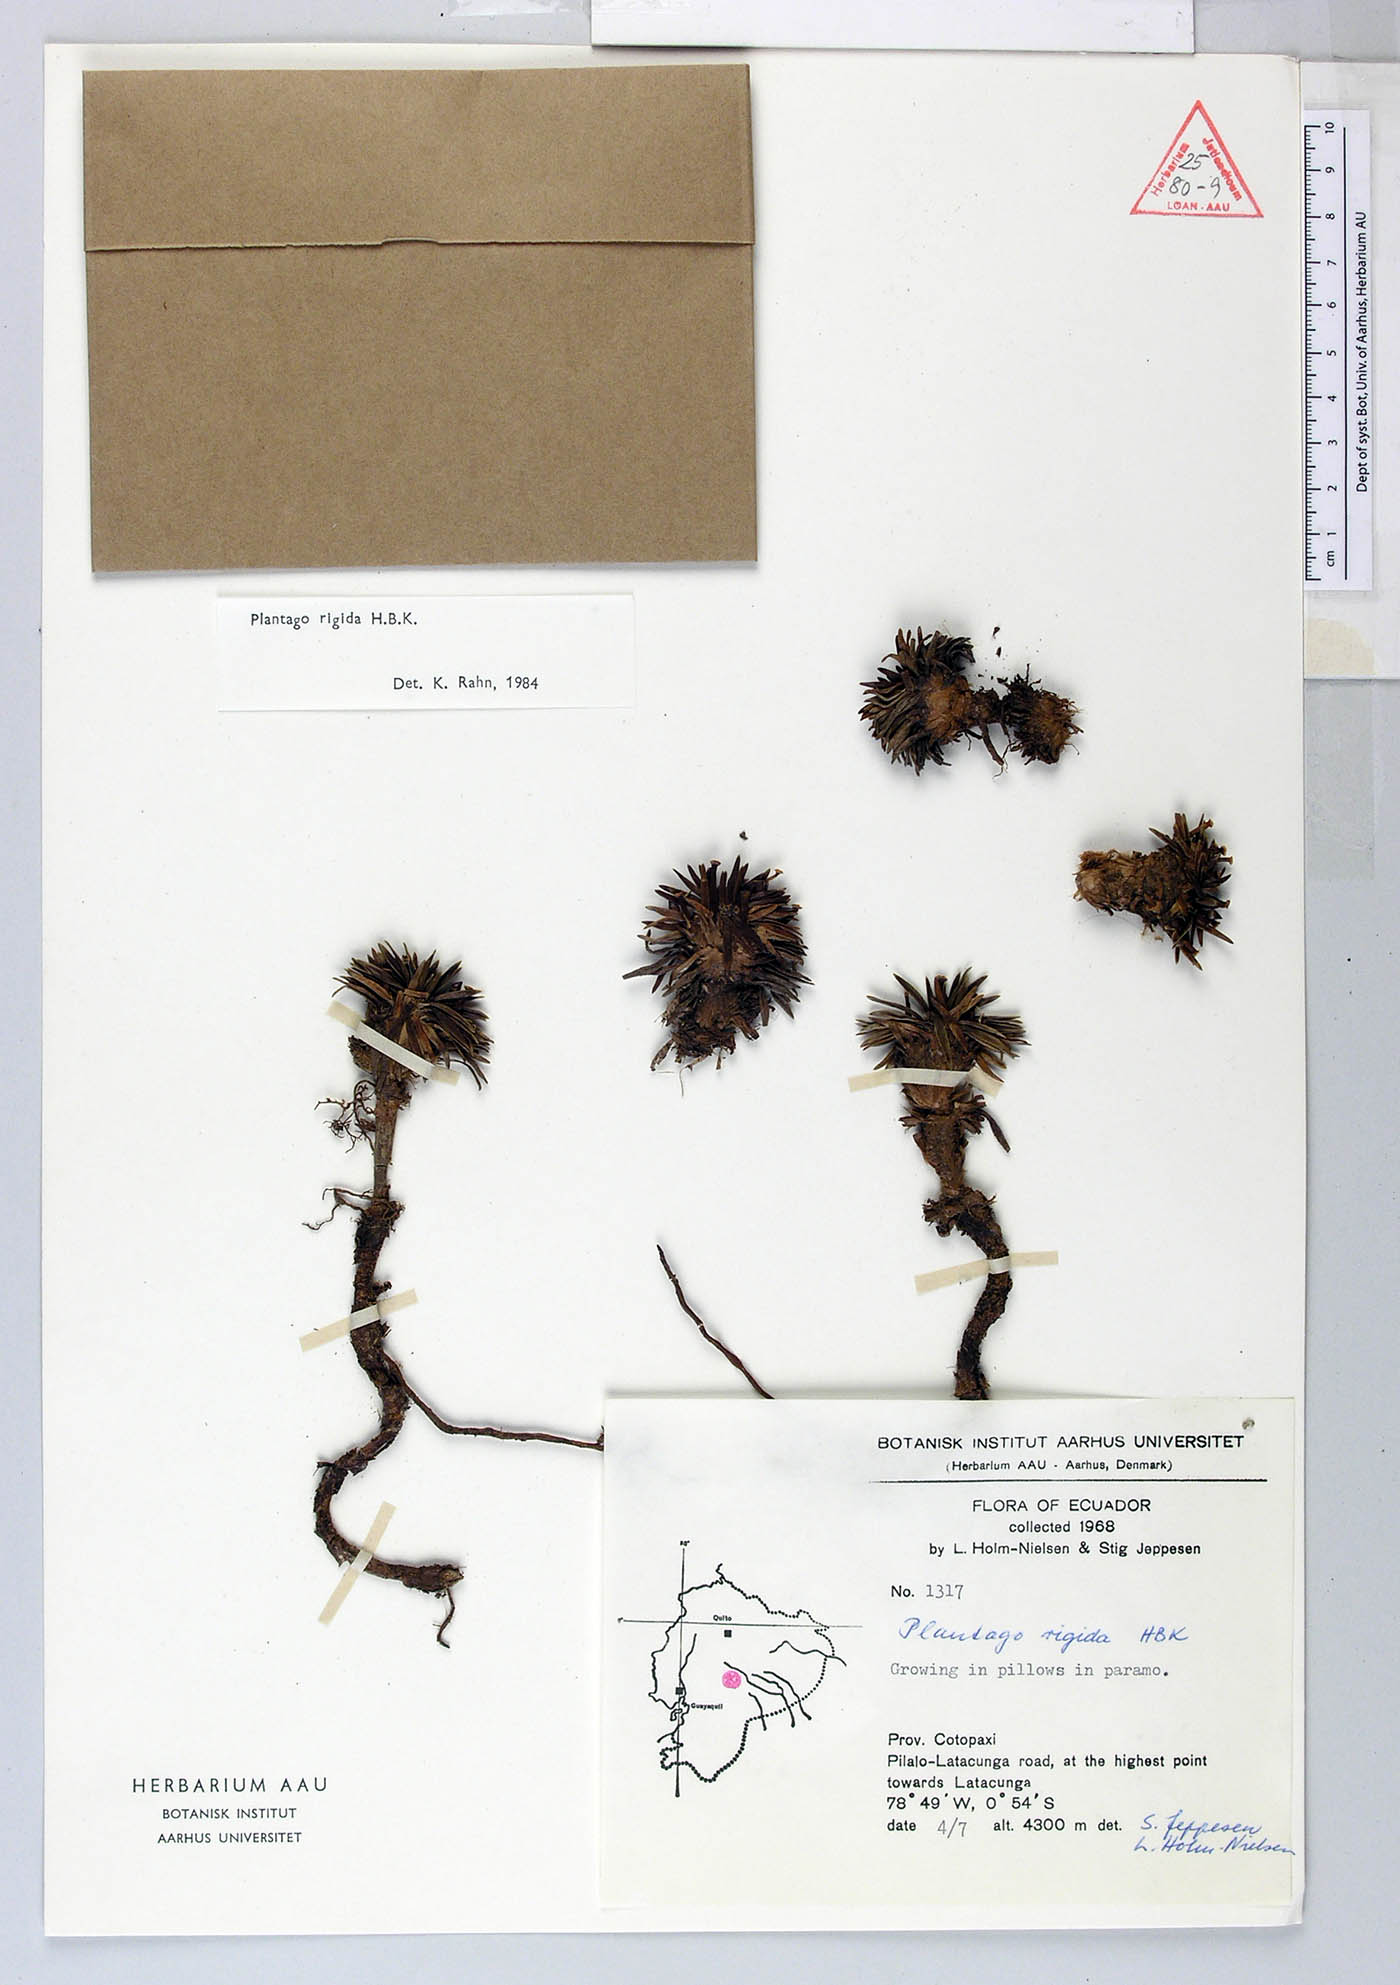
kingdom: Plantae
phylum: Tracheophyta
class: Magnoliopsida
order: Lamiales
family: Plantaginaceae
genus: Plantago
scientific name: Plantago rigida
